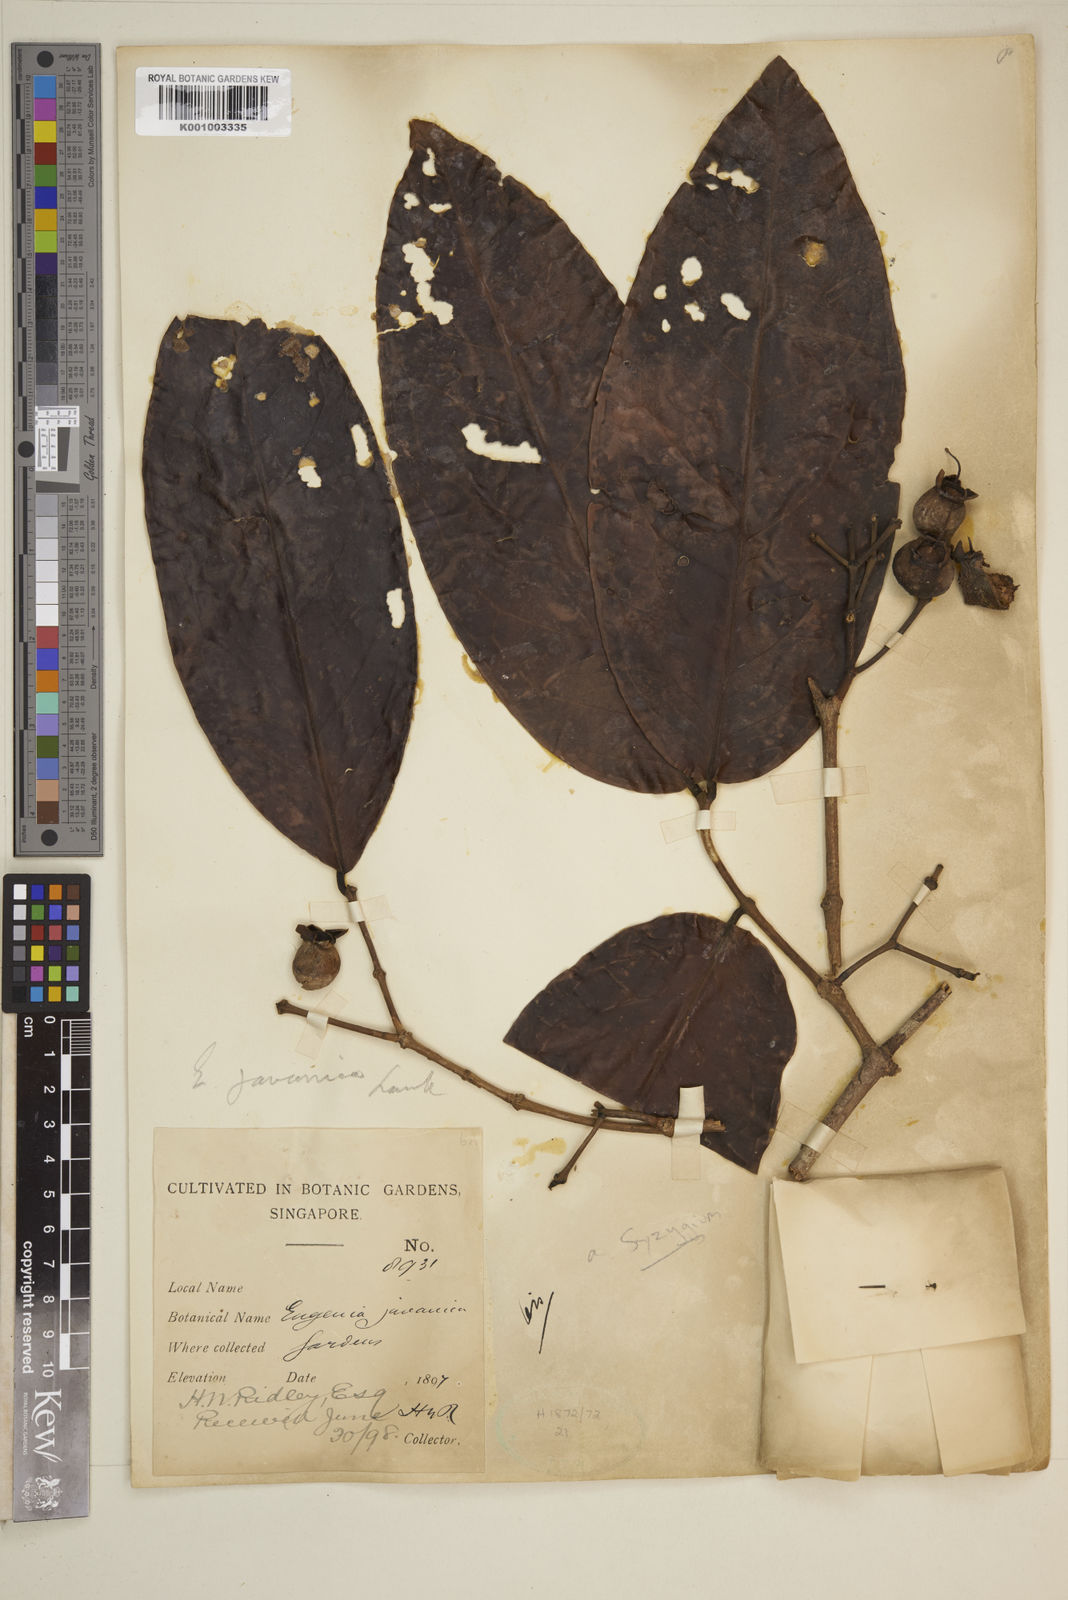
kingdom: Plantae
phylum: Tracheophyta
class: Magnoliopsida
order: Myrtales
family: Myrtaceae
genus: Syzygium
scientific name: Syzygium samarangense
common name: Semarang rose-apple
